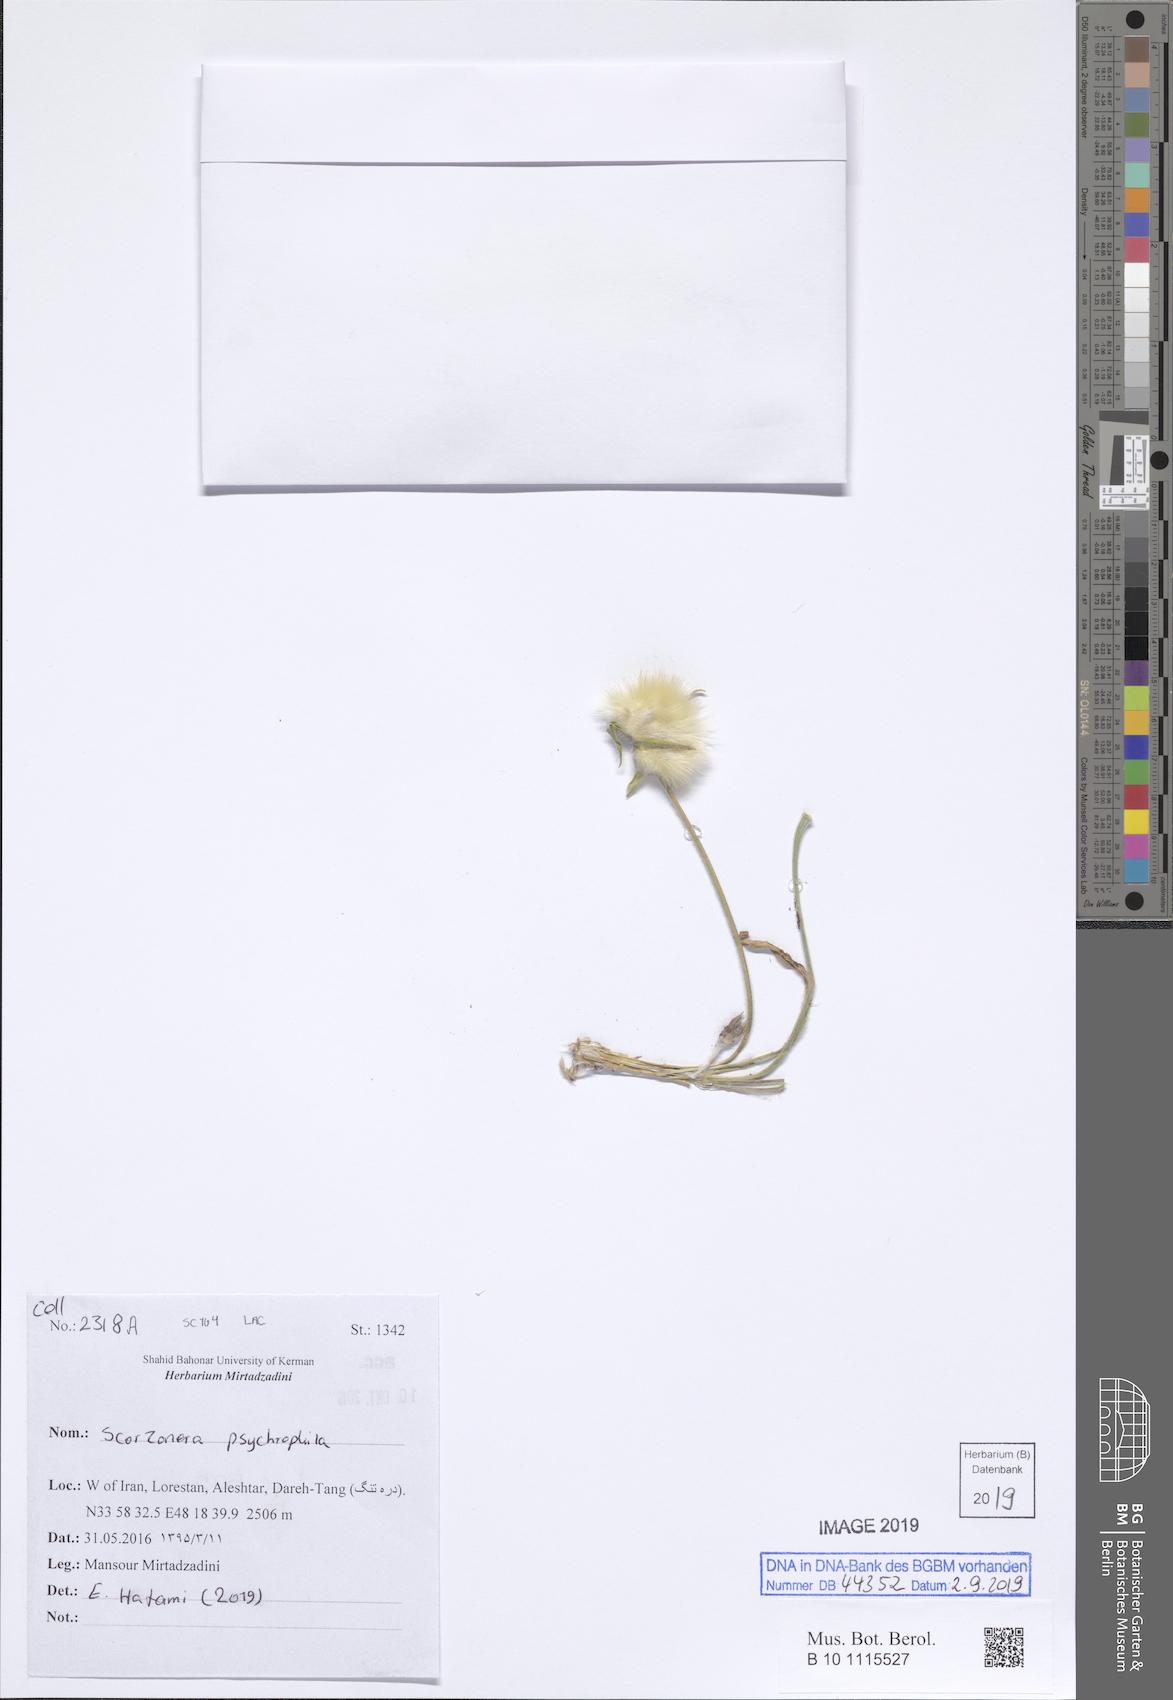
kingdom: Plantae
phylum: Tracheophyta
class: Magnoliopsida
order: Asterales
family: Asteraceae
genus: Gelasia
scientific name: Gelasia psychrophila
